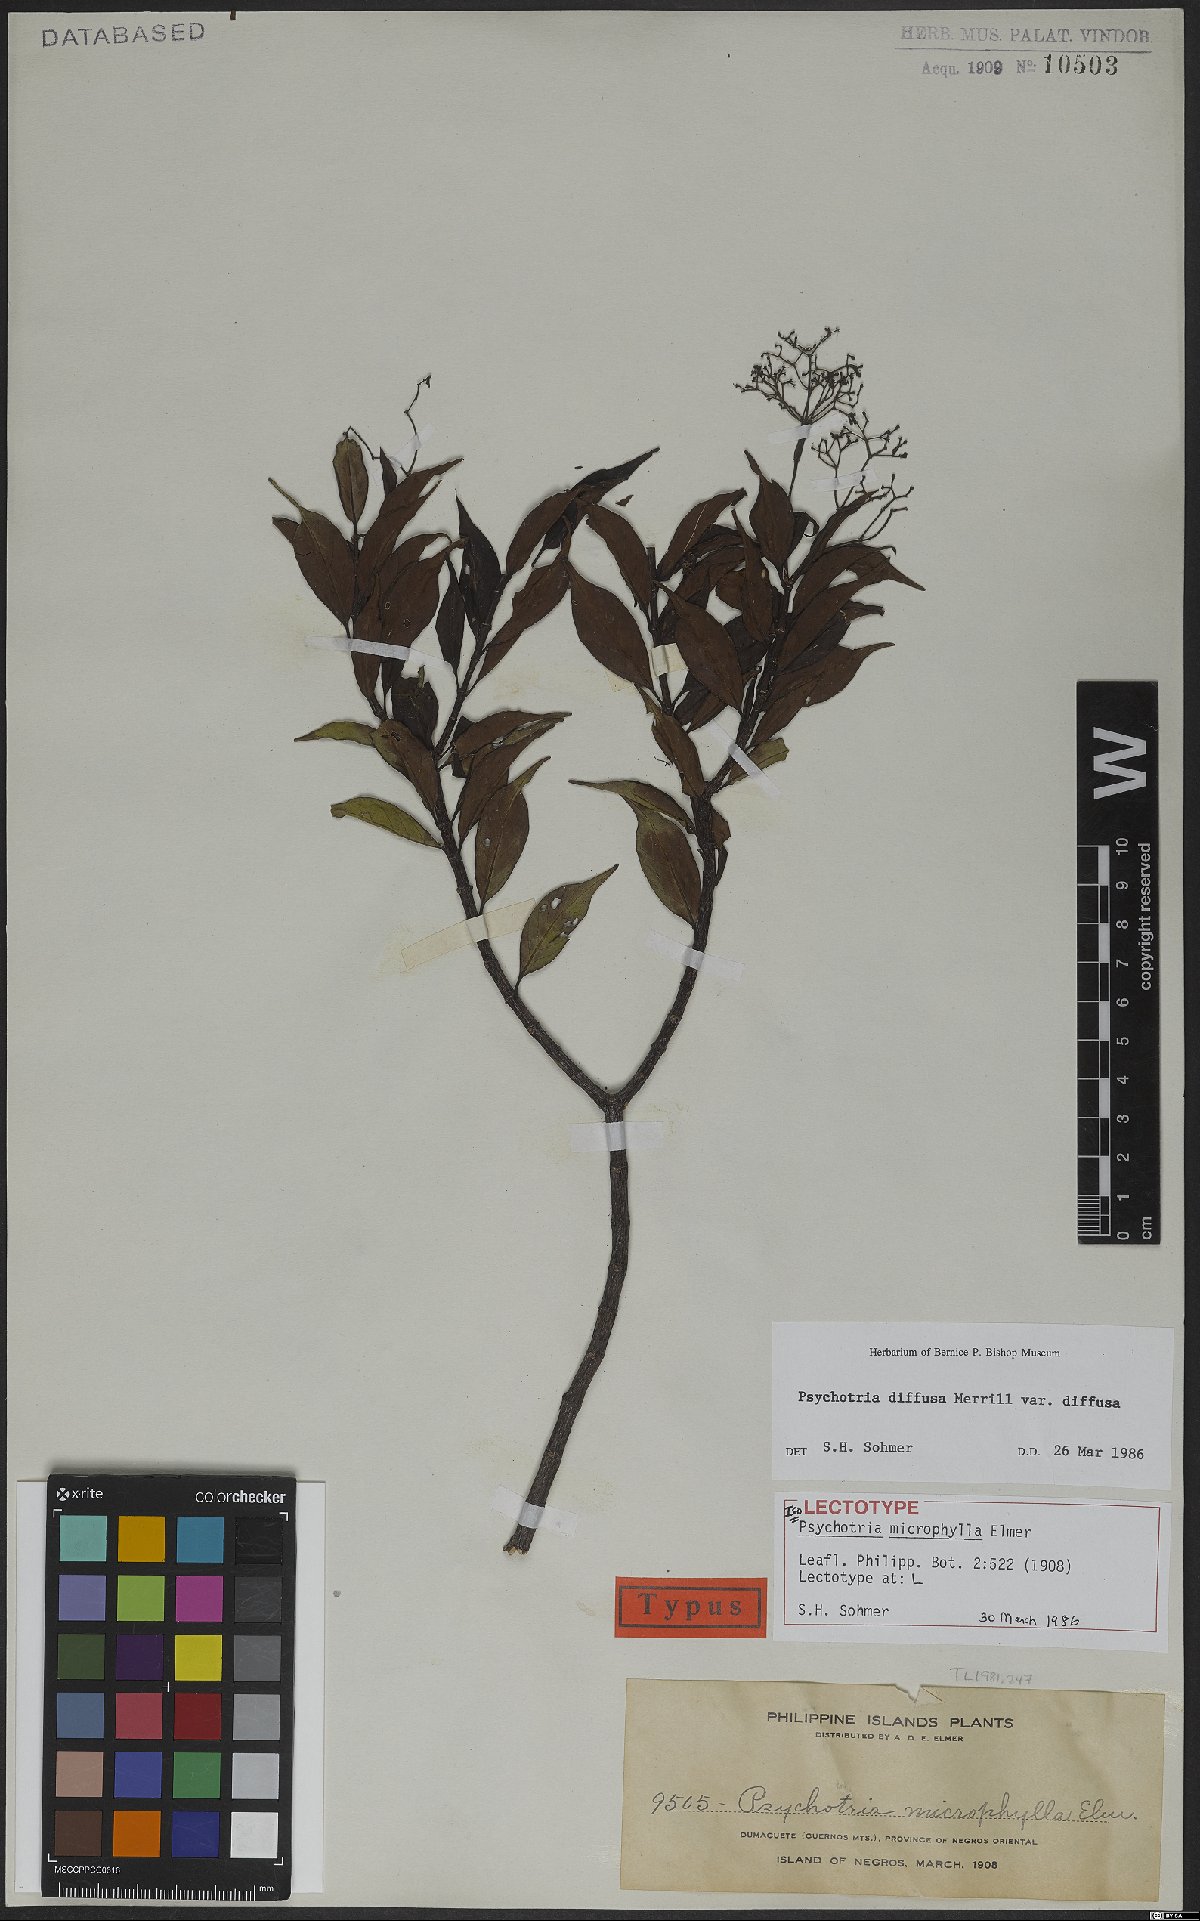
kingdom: Plantae
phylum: Tracheophyta
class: Magnoliopsida
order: Gentianales
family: Rubiaceae
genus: Psychotria
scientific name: Psychotria diffusa
